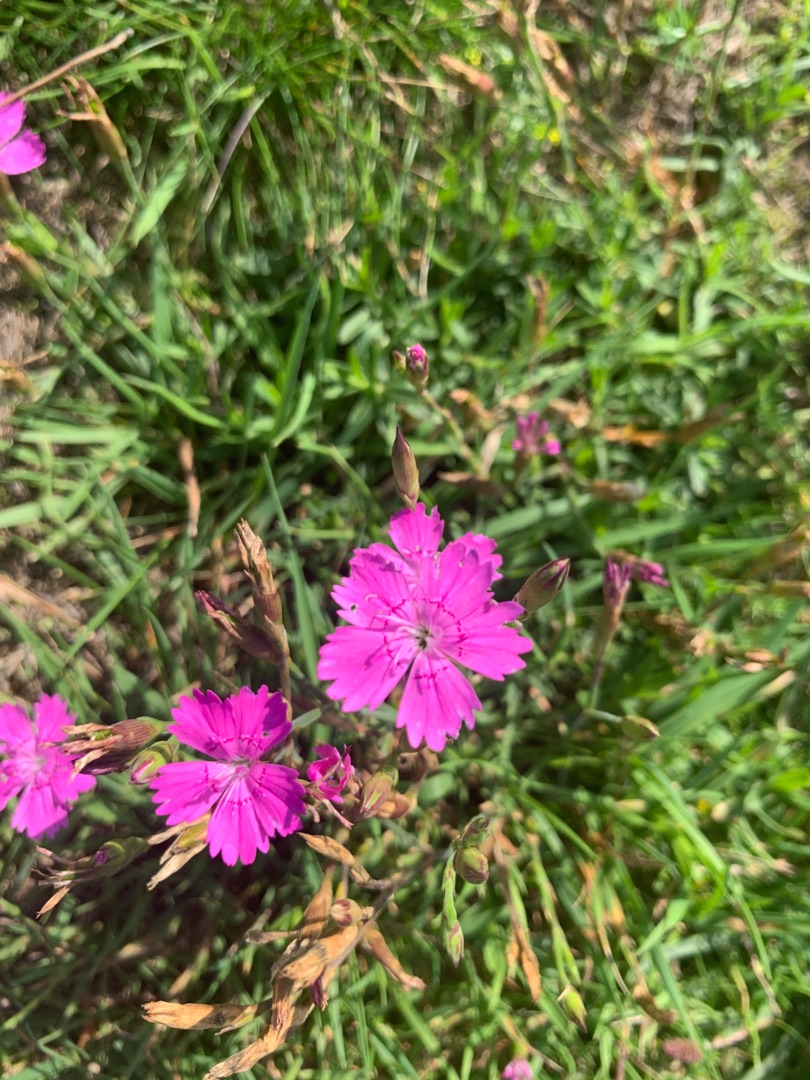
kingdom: Plantae
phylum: Tracheophyta
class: Magnoliopsida
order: Caryophyllales
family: Caryophyllaceae
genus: Dianthus
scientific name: Dianthus deltoides
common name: Bakke-nellike
